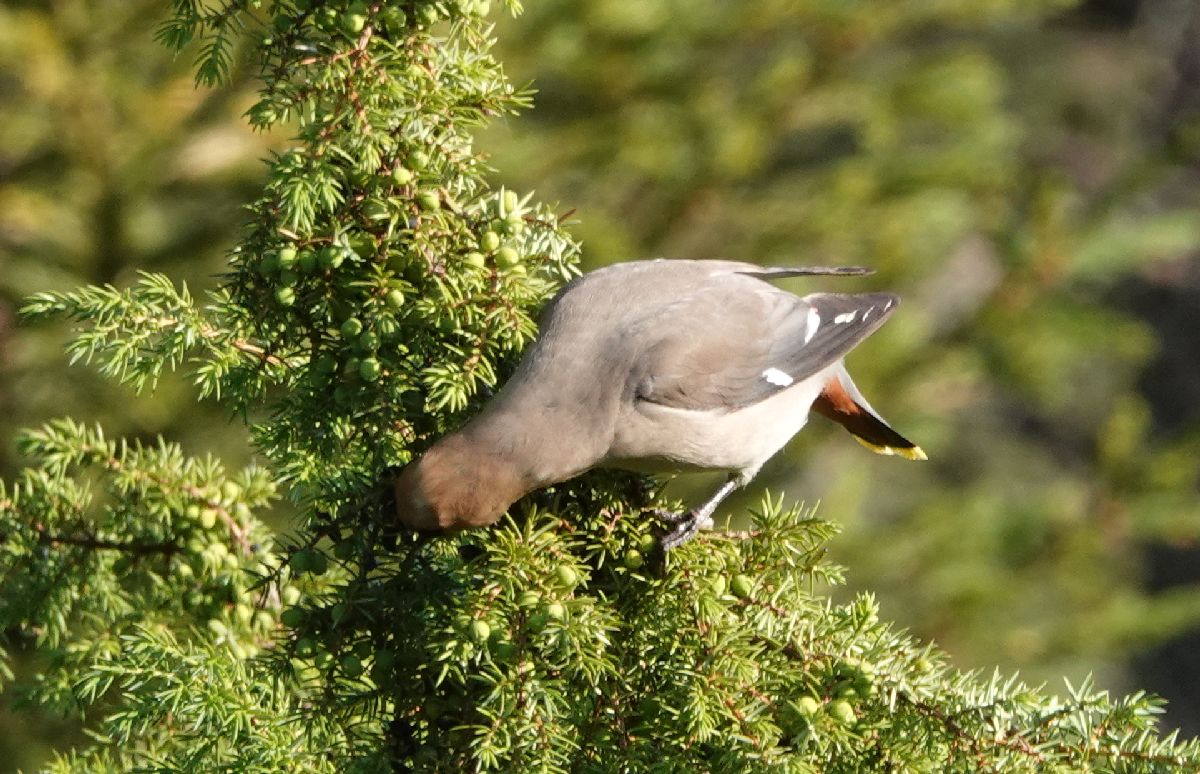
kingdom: Animalia
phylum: Chordata
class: Aves
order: Passeriformes
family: Bombycillidae
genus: Bombycilla
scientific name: Bombycilla garrulus
